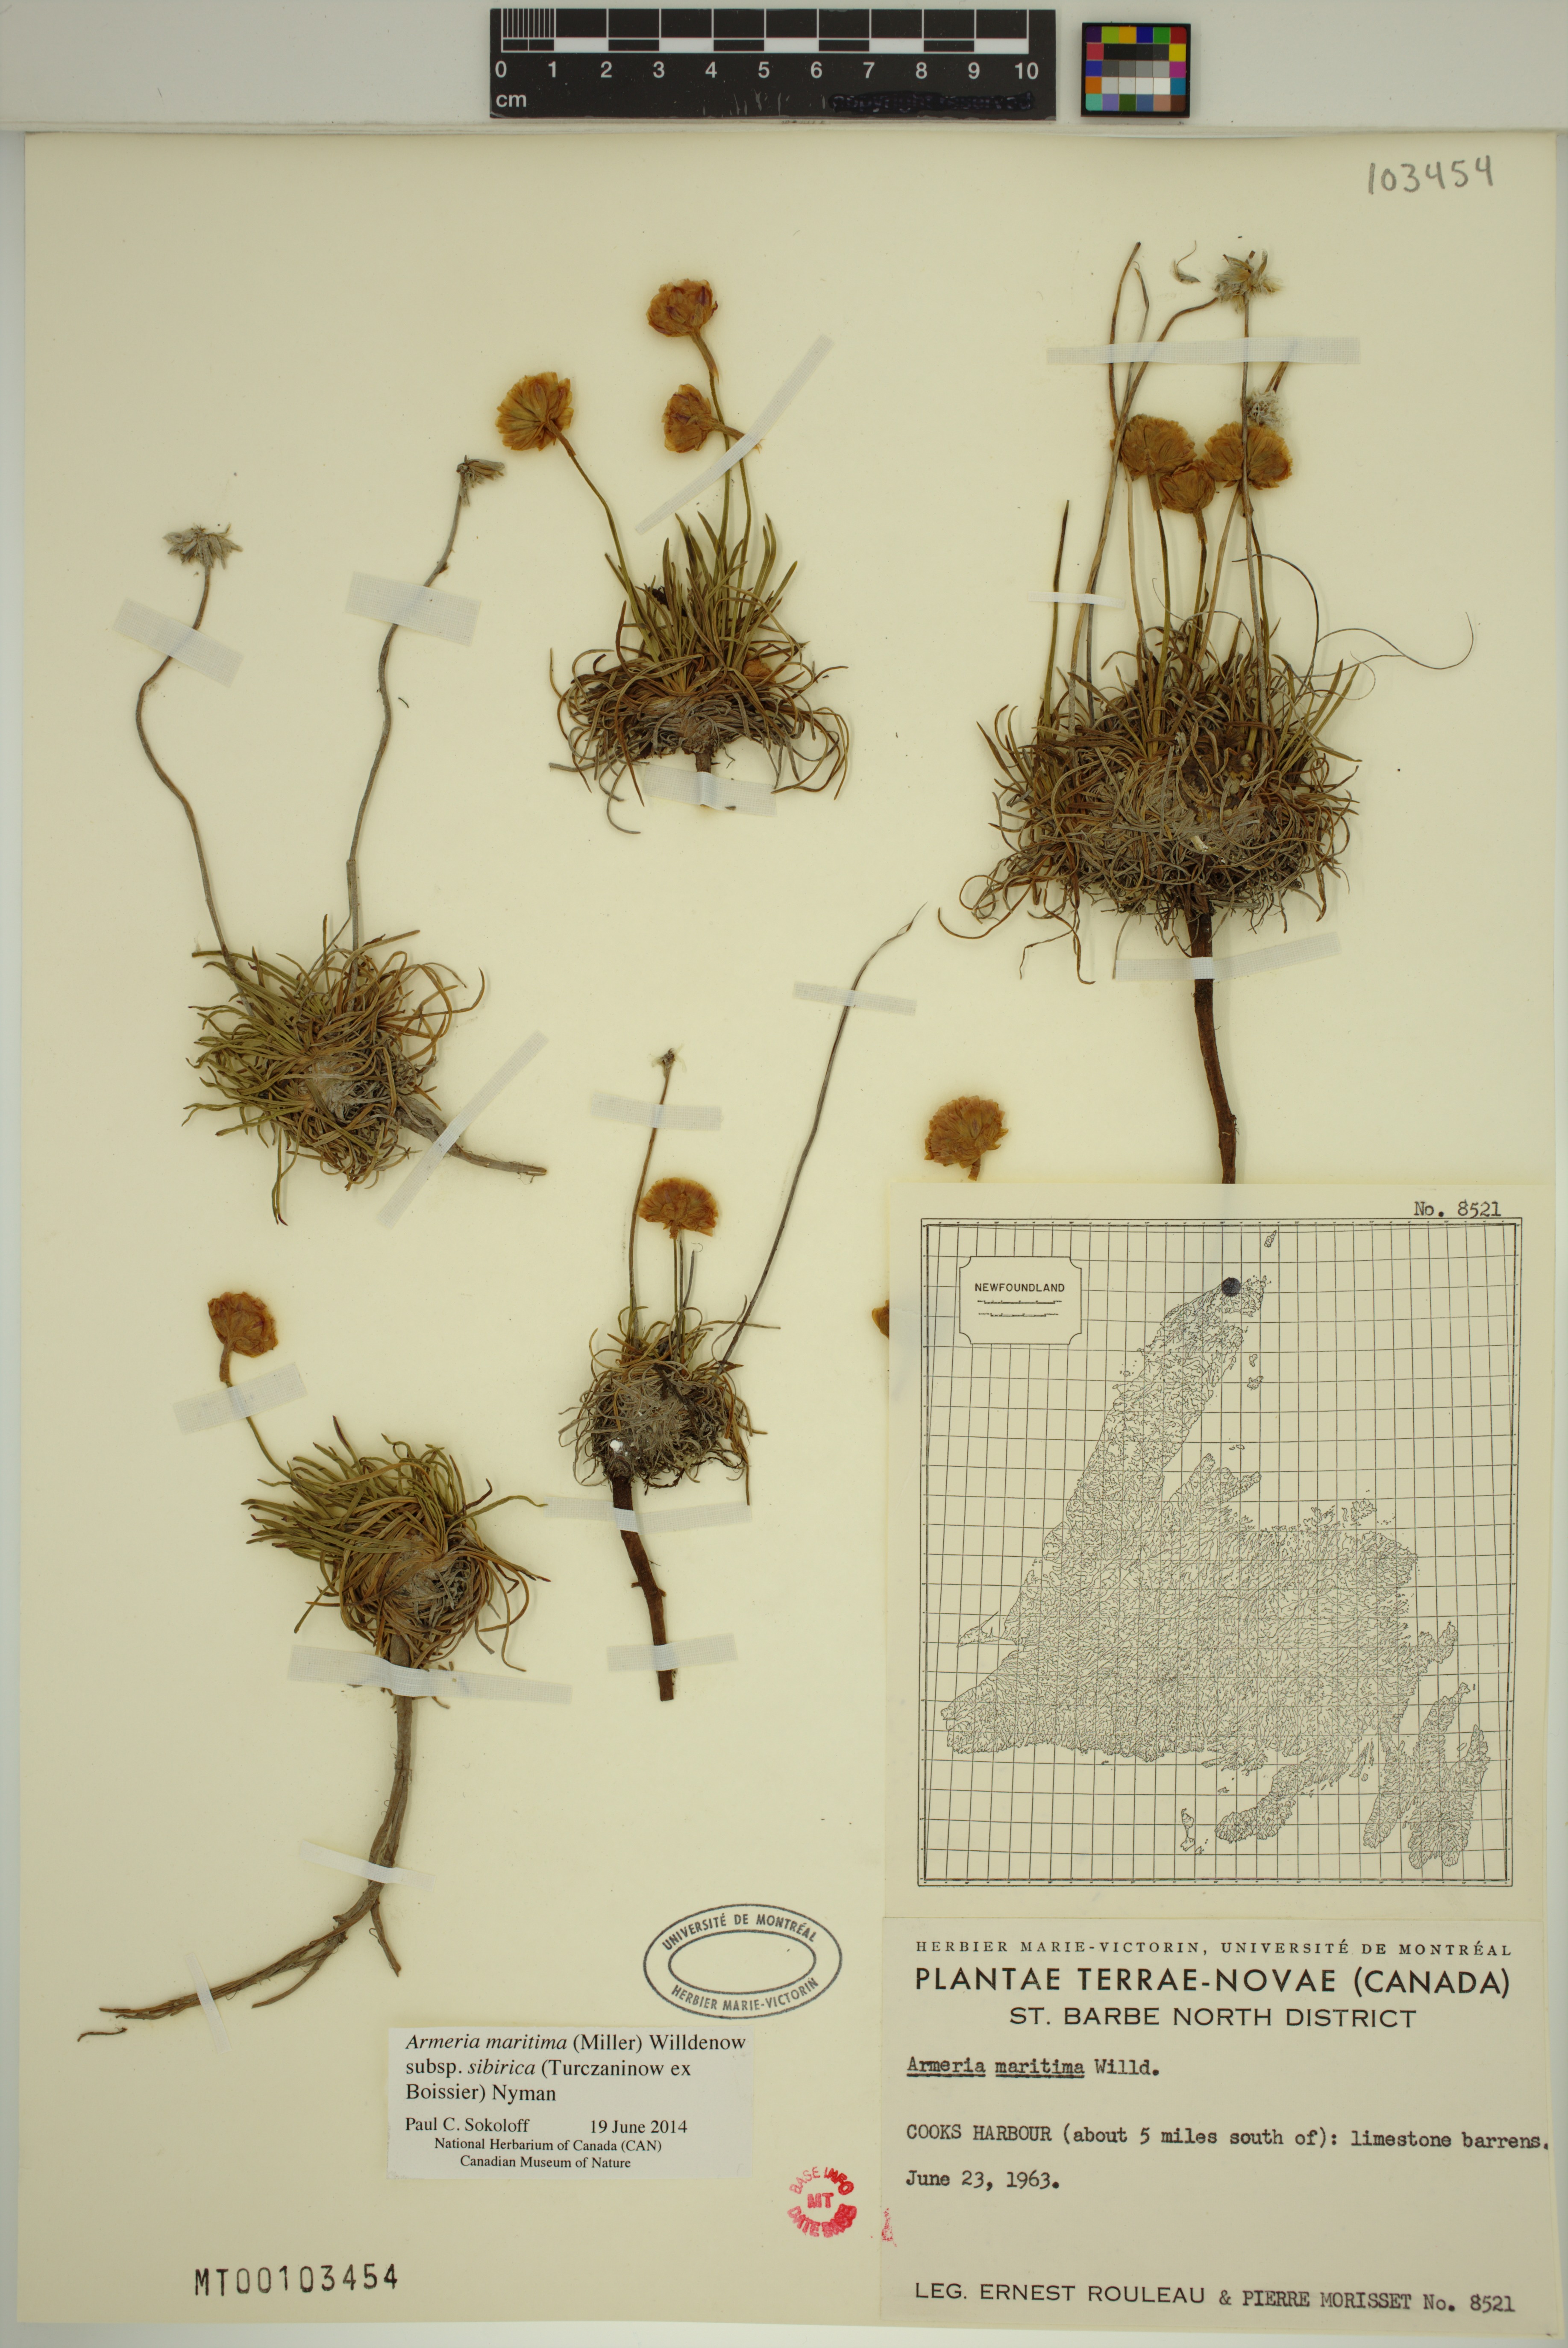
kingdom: Plantae
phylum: Tracheophyta
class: Magnoliopsida
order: Caryophyllales
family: Plumbaginaceae
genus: Armeria
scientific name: Armeria maritima
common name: Thrift
